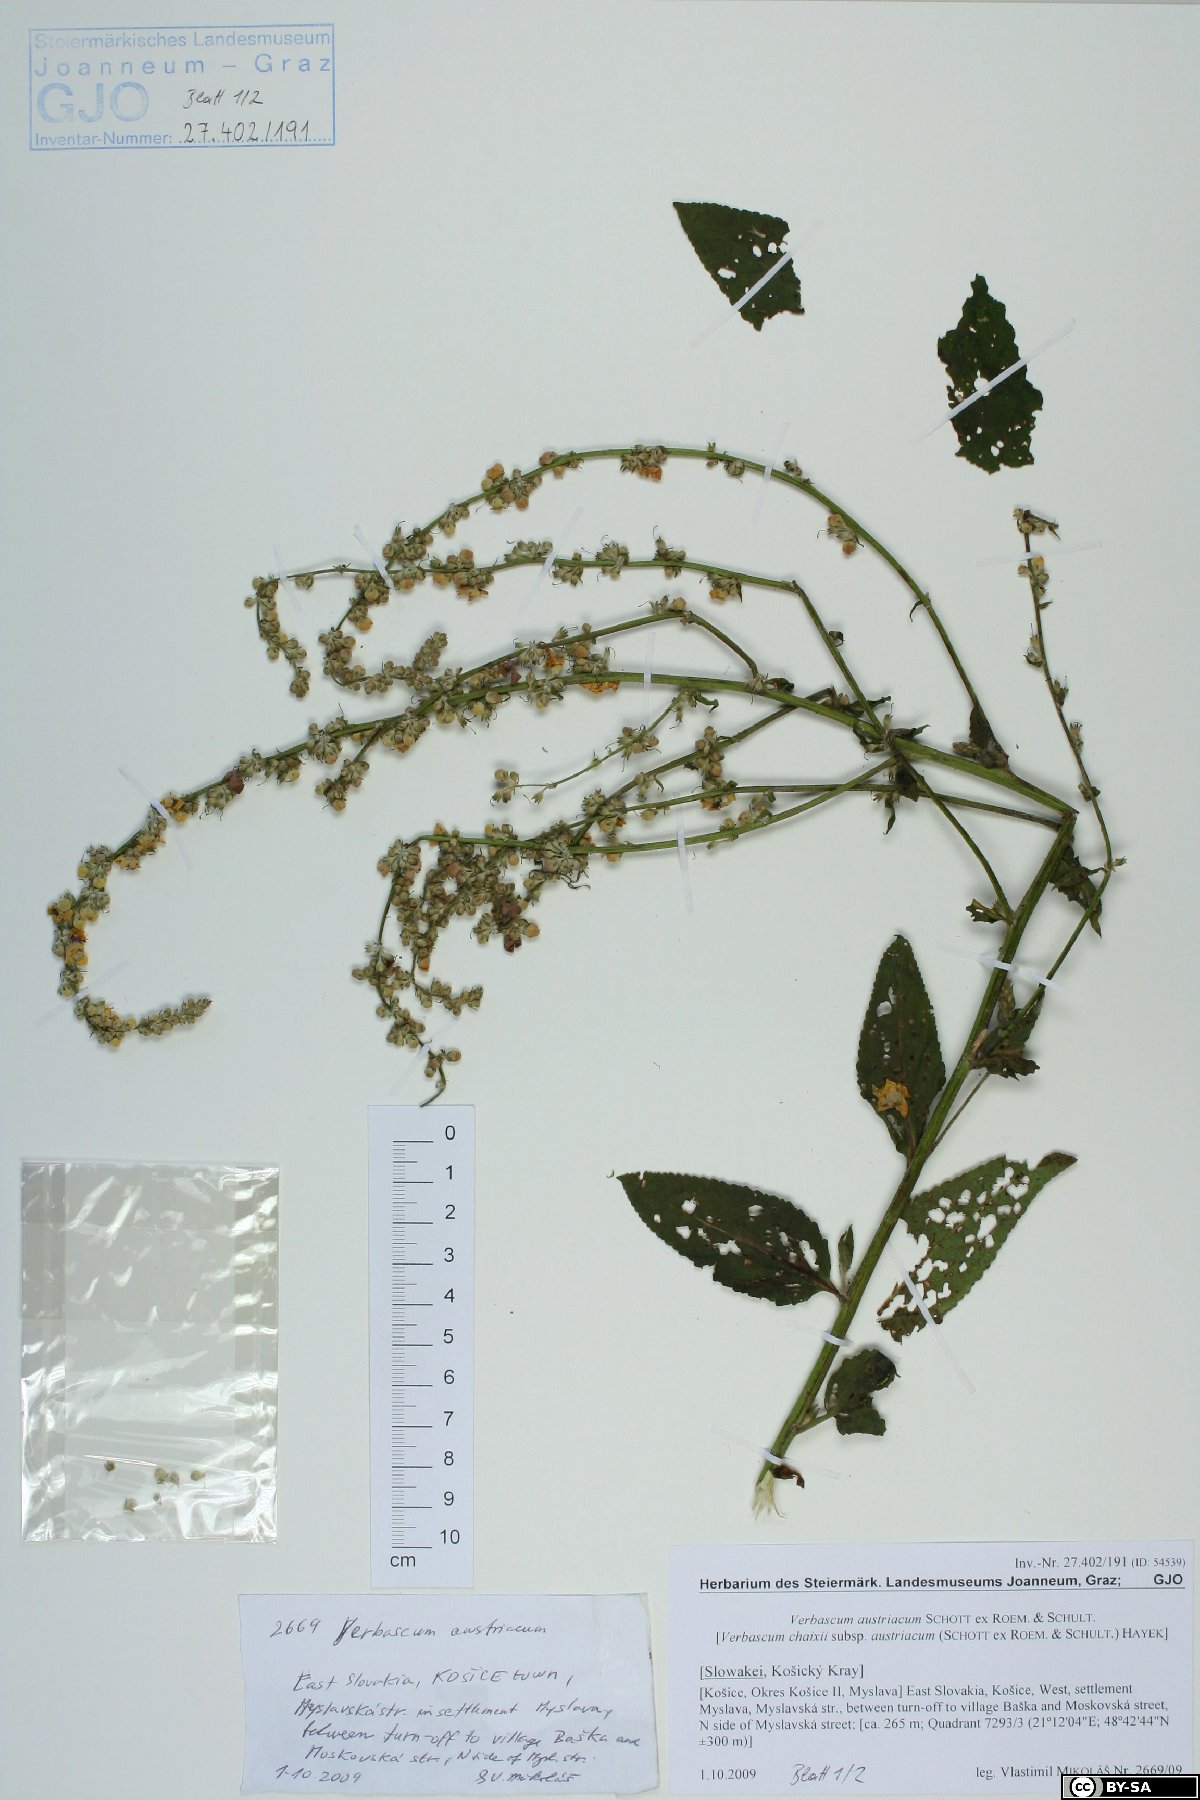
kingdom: Plantae
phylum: Tracheophyta
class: Magnoliopsida
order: Lamiales
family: Scrophulariaceae
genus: Verbascum
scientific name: Verbascum chaixii
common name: Nettle-leaved mullein
